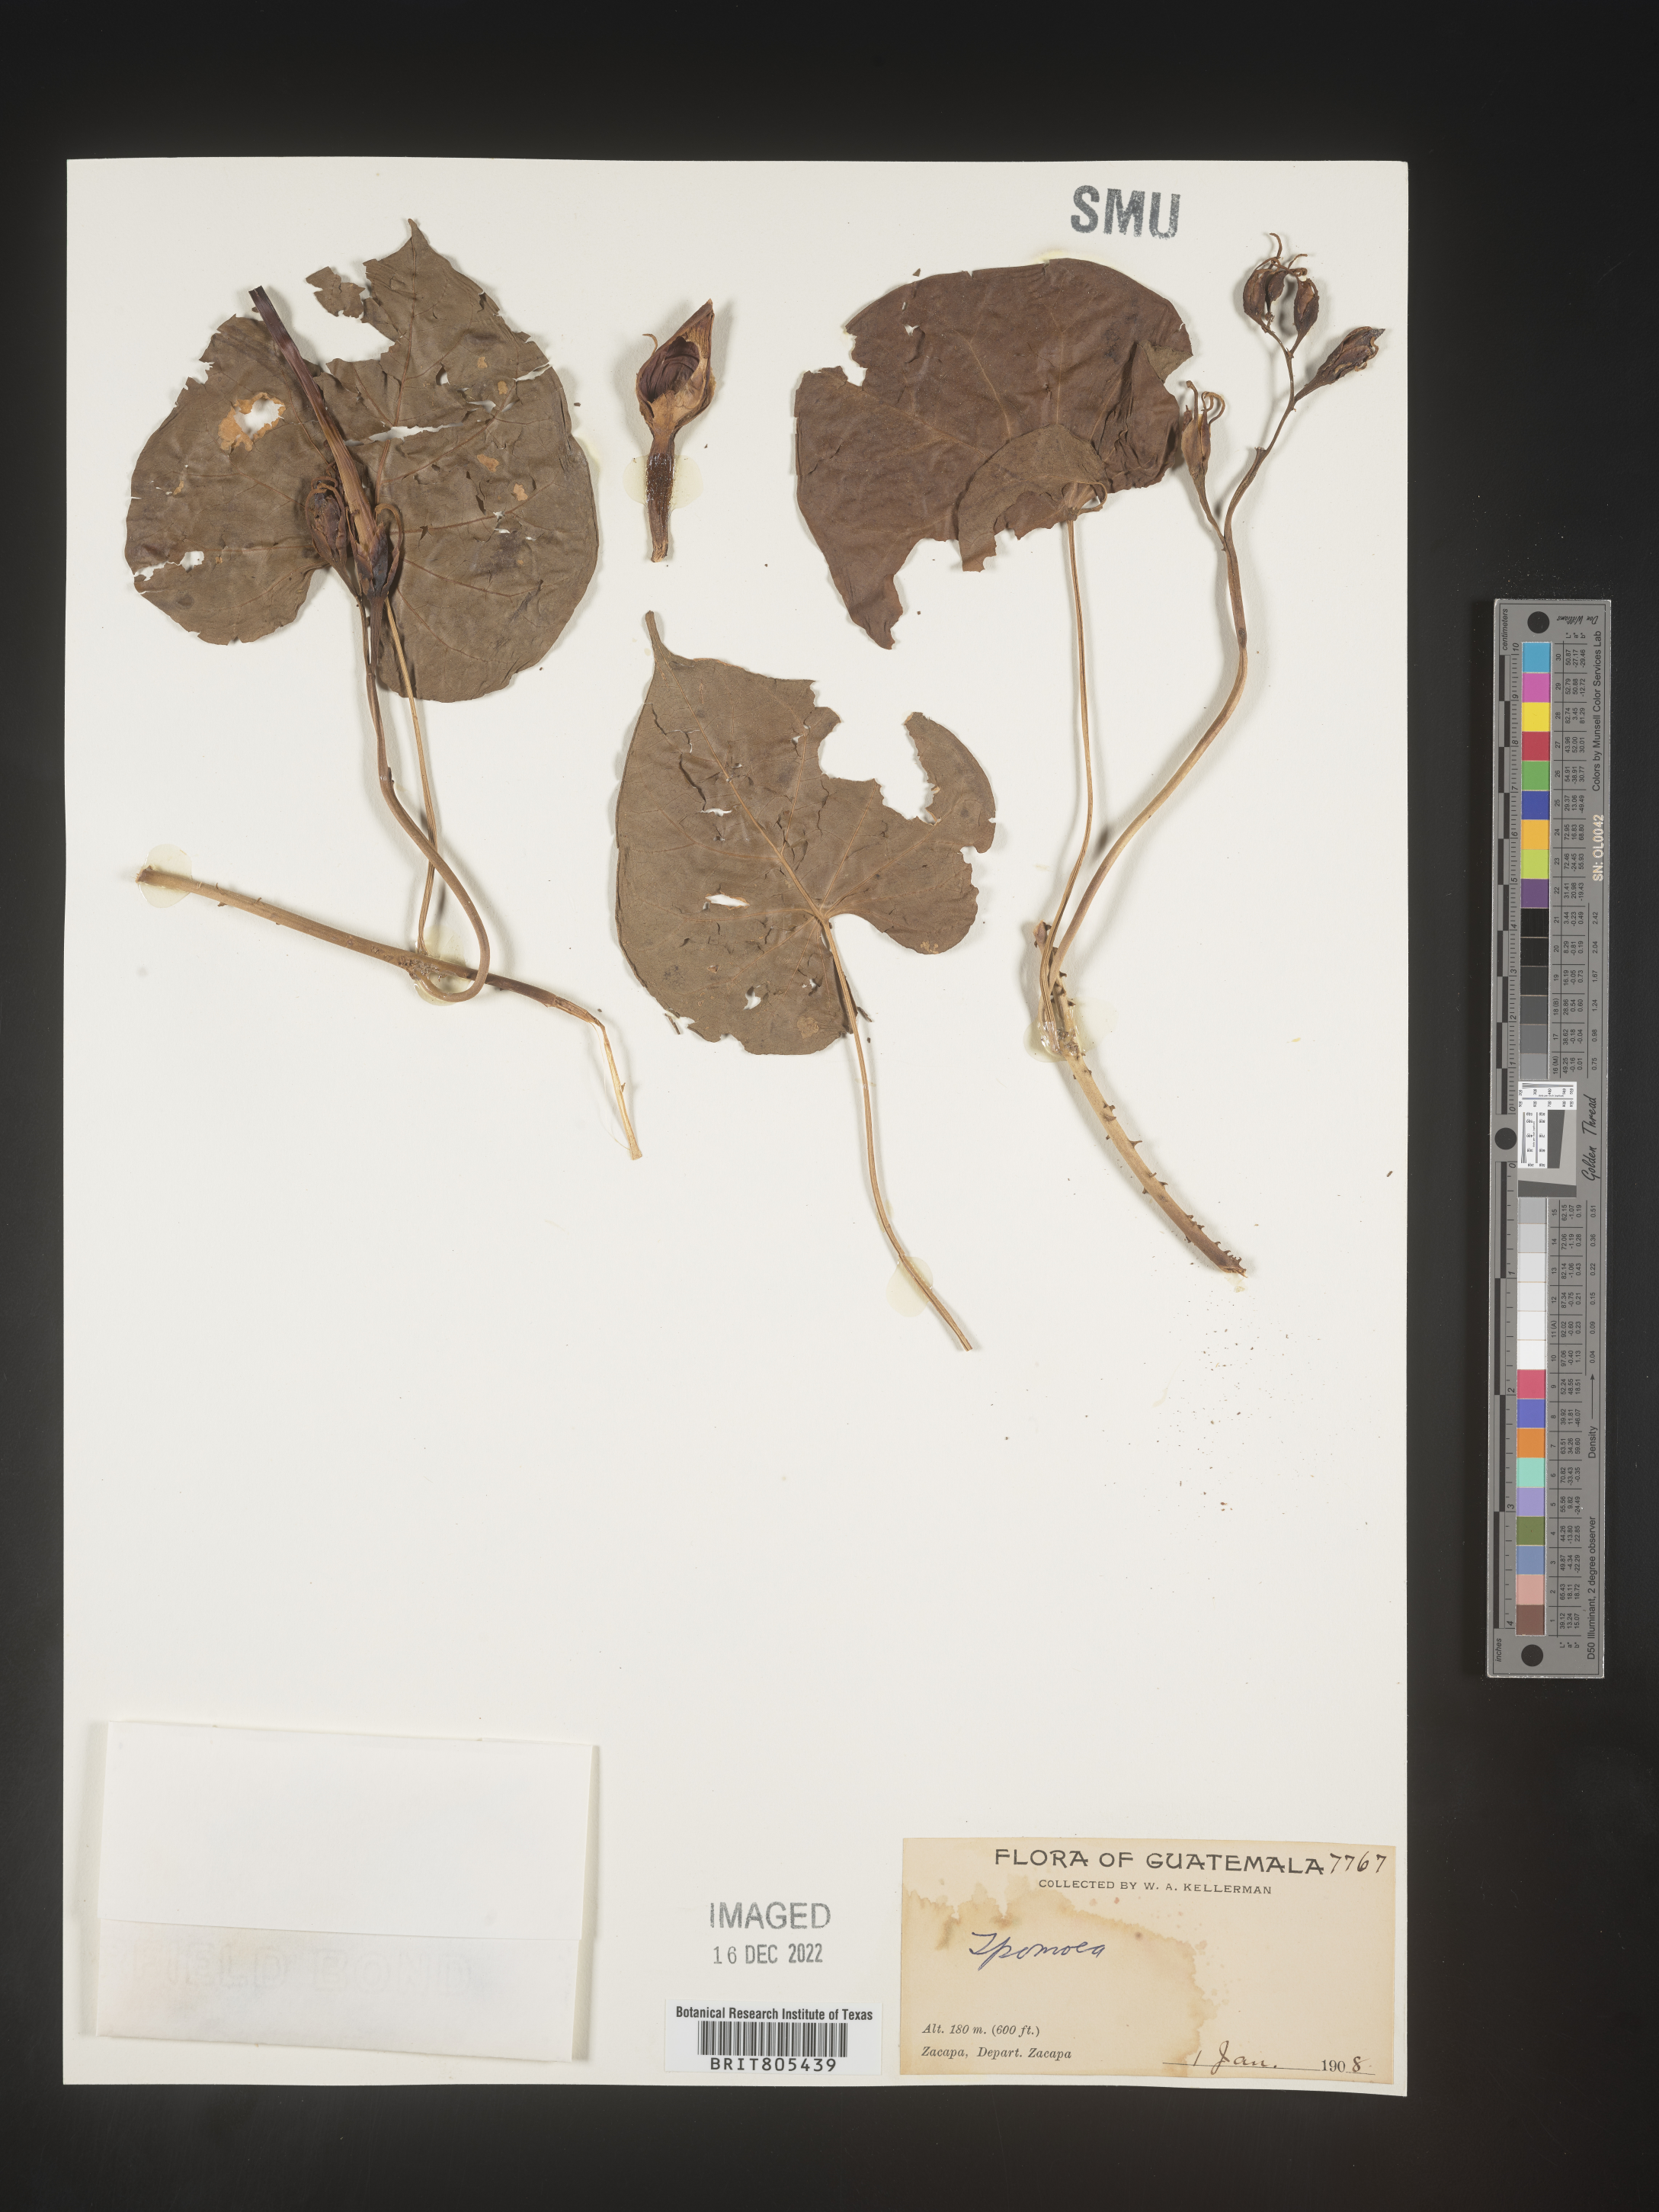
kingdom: Plantae
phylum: Tracheophyta
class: Magnoliopsida
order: Solanales
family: Convolvulaceae
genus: Ipomoea
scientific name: Ipomoea
